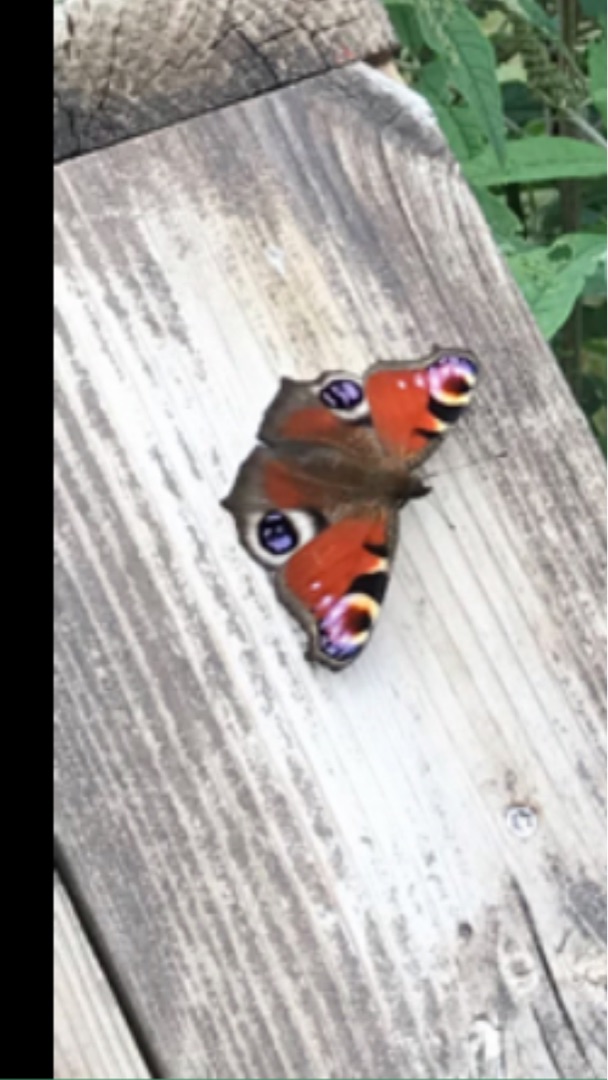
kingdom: Animalia
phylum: Arthropoda
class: Insecta
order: Lepidoptera
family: Nymphalidae
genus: Aglais
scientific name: Aglais io
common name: Dagpåfugleøje
